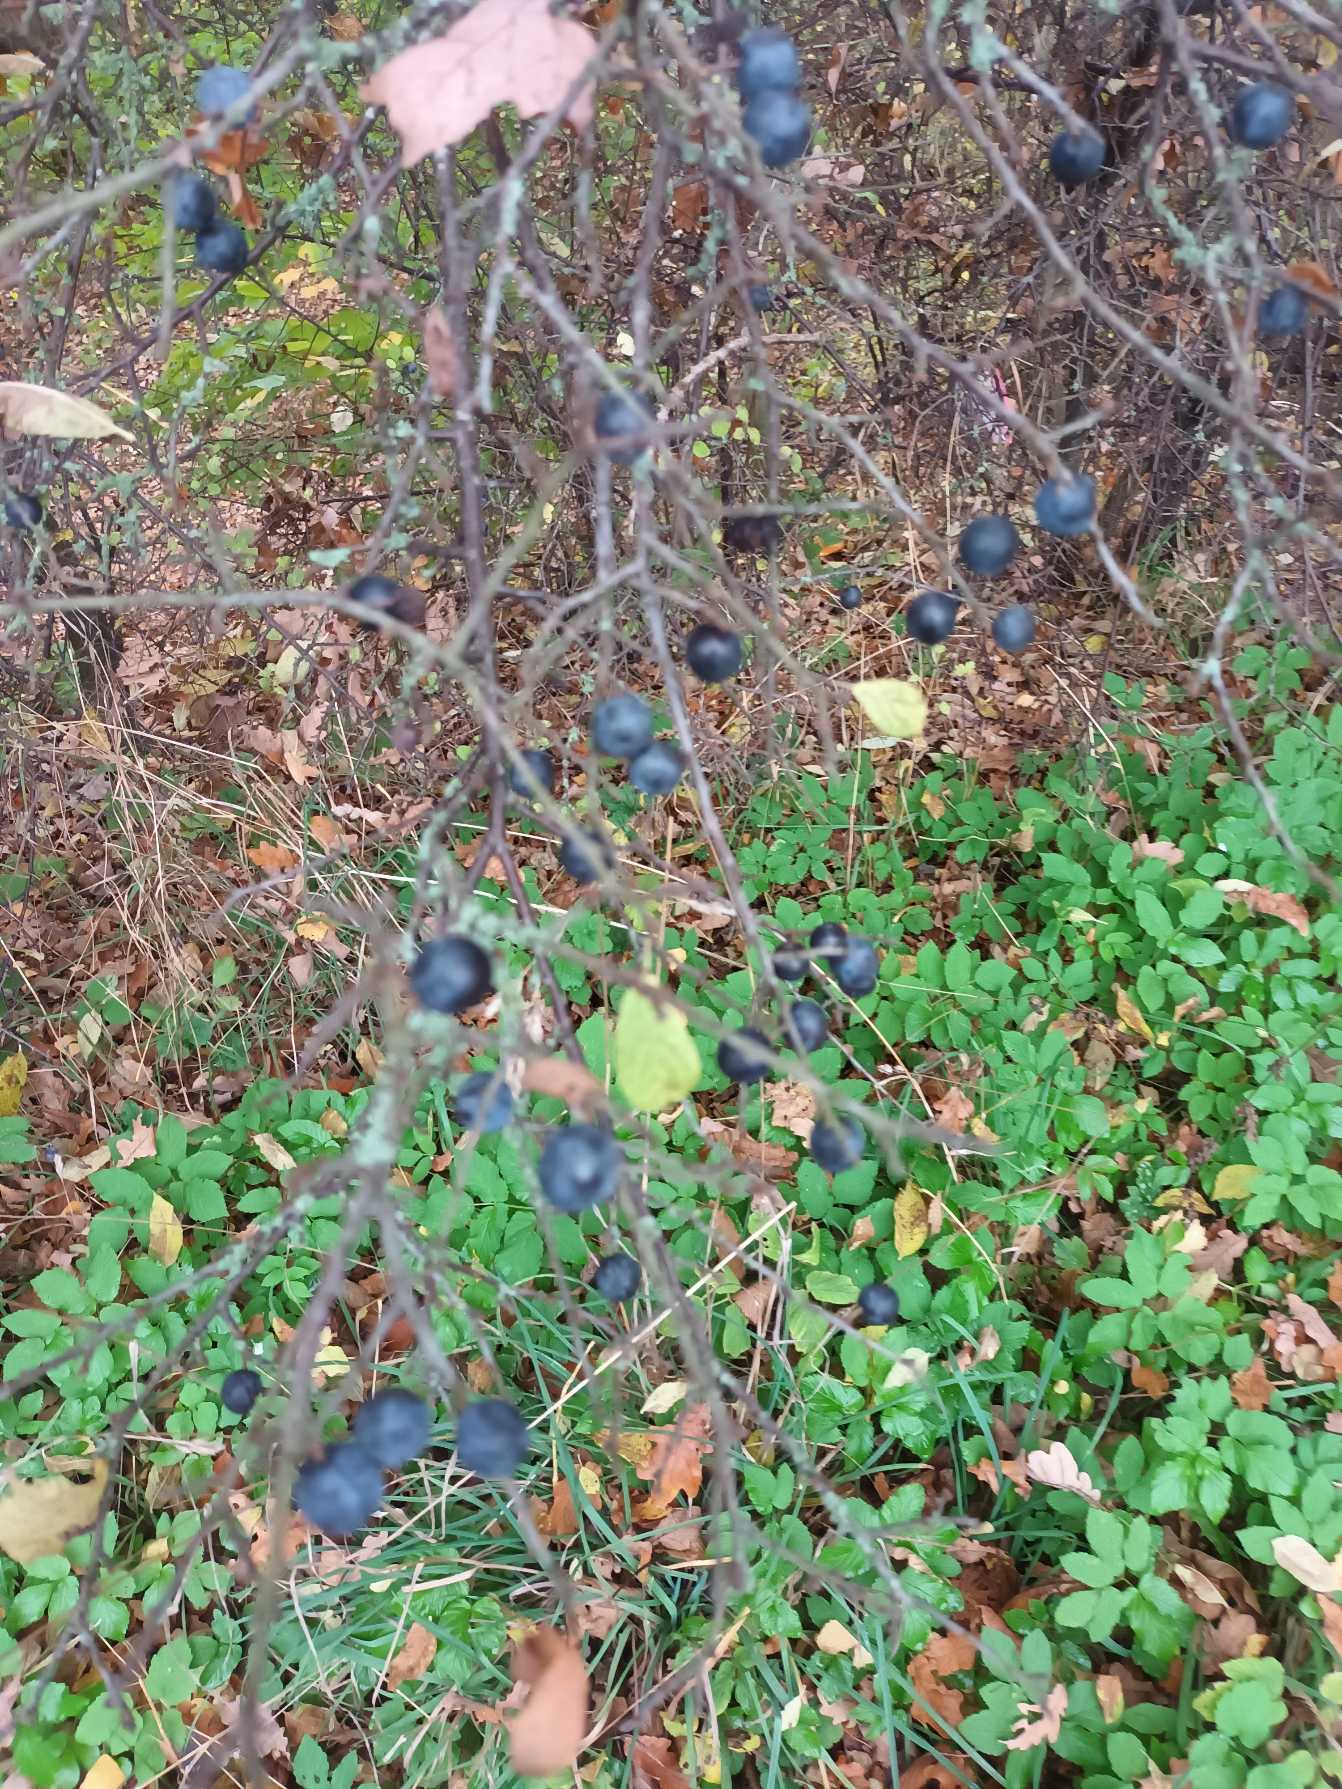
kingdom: Plantae
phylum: Tracheophyta
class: Magnoliopsida
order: Rosales
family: Rosaceae
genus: Prunus
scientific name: Prunus spinosa
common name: Slåen
